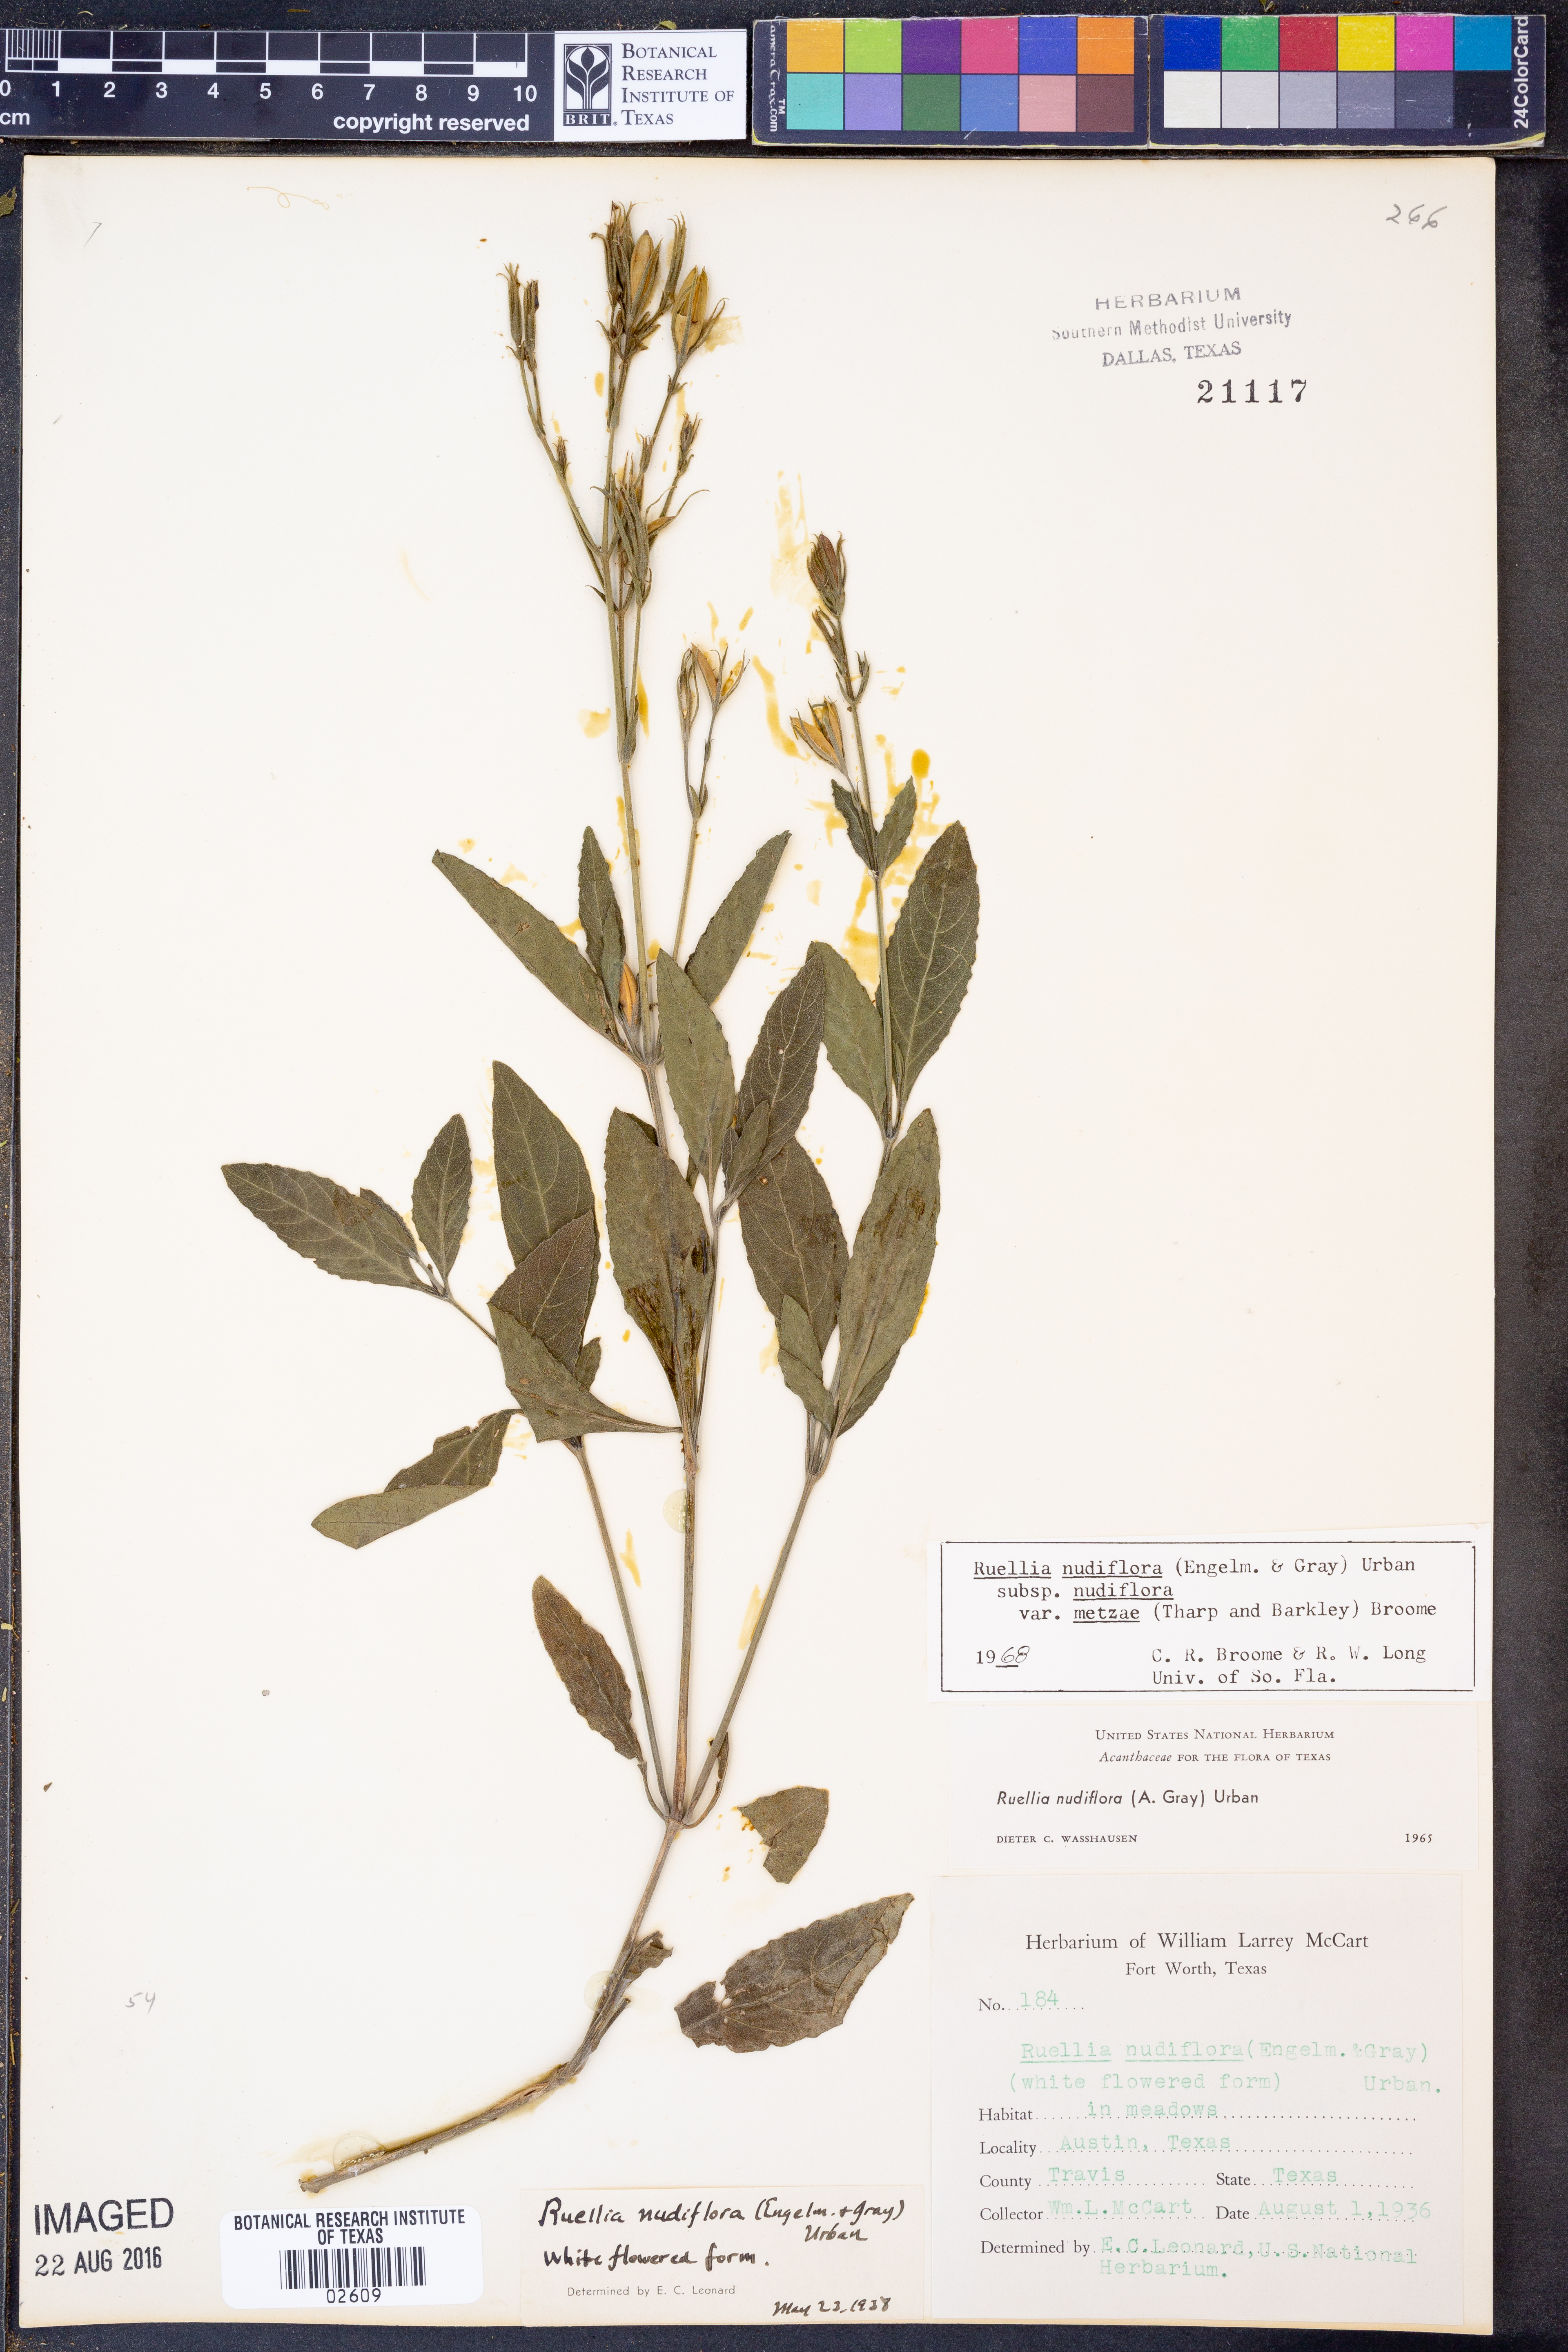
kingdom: Plantae
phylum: Tracheophyta
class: Magnoliopsida
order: Lamiales
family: Acanthaceae
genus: Ruellia
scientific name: Ruellia ciliatiflora
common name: Hairyflower wild petunia
